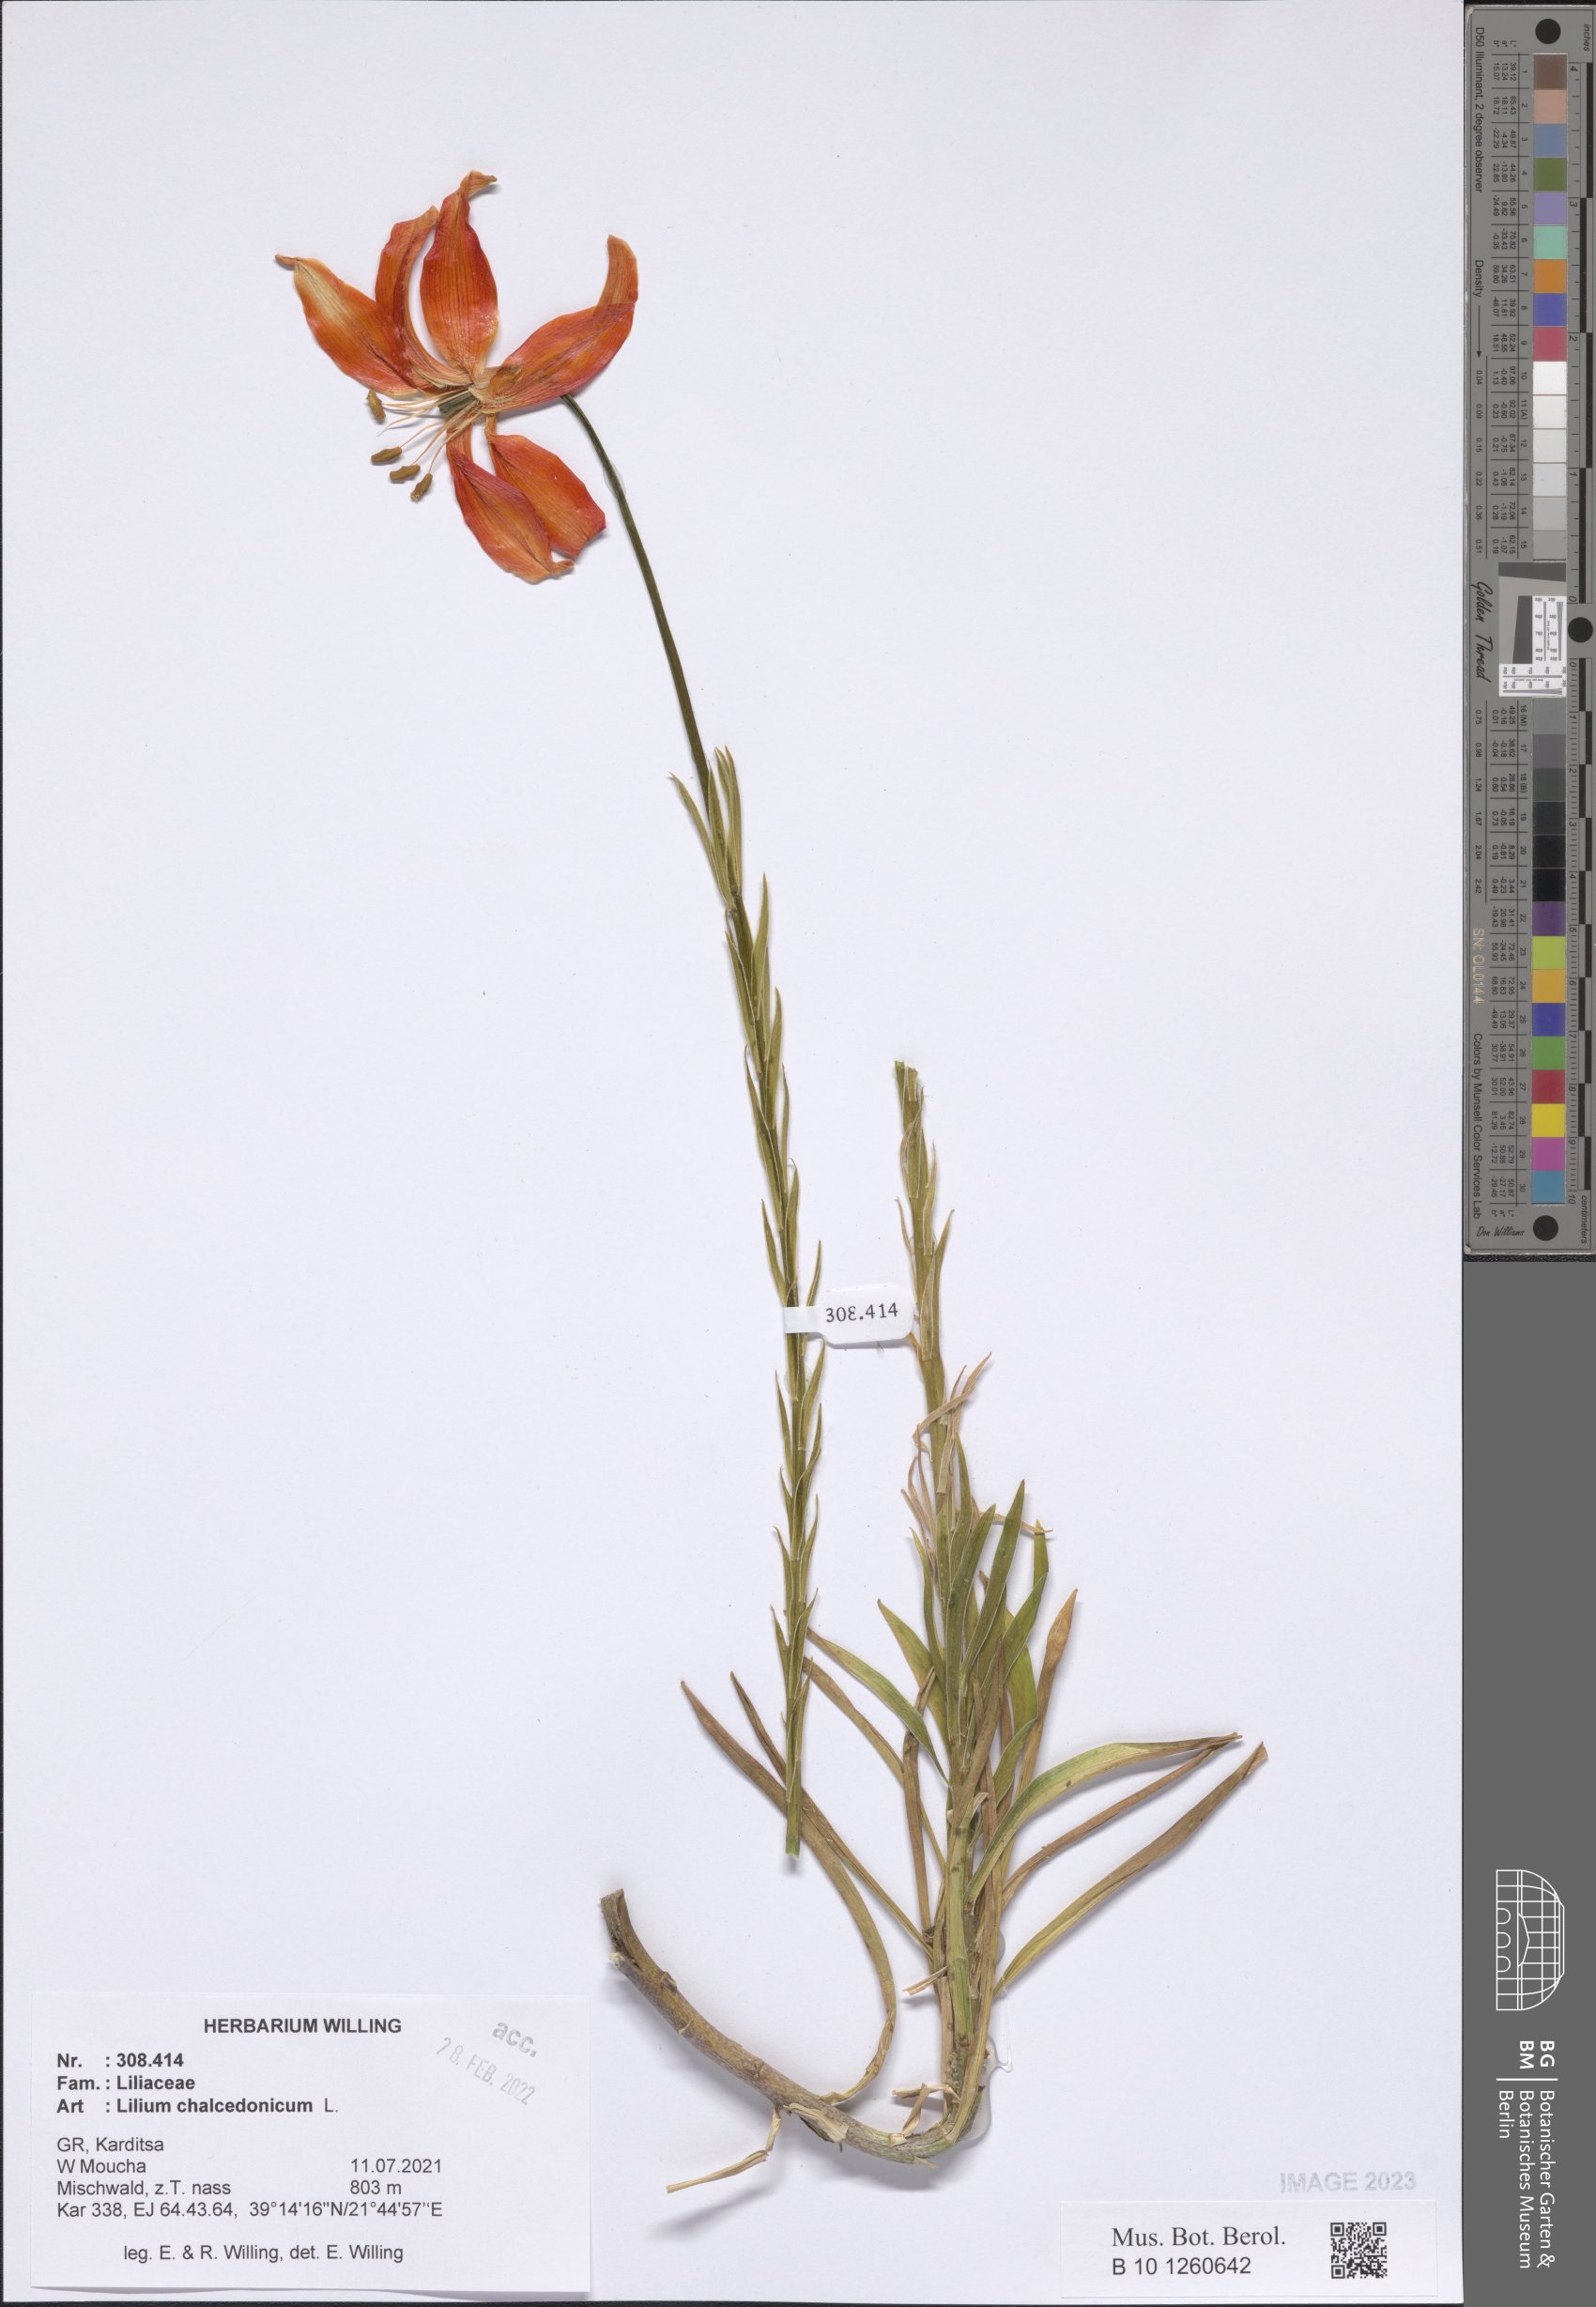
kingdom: Plantae
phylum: Tracheophyta
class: Liliopsida
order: Liliales
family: Liliaceae
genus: Lilium
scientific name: Lilium chalcedonicum
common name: Red martagon of constantinople
